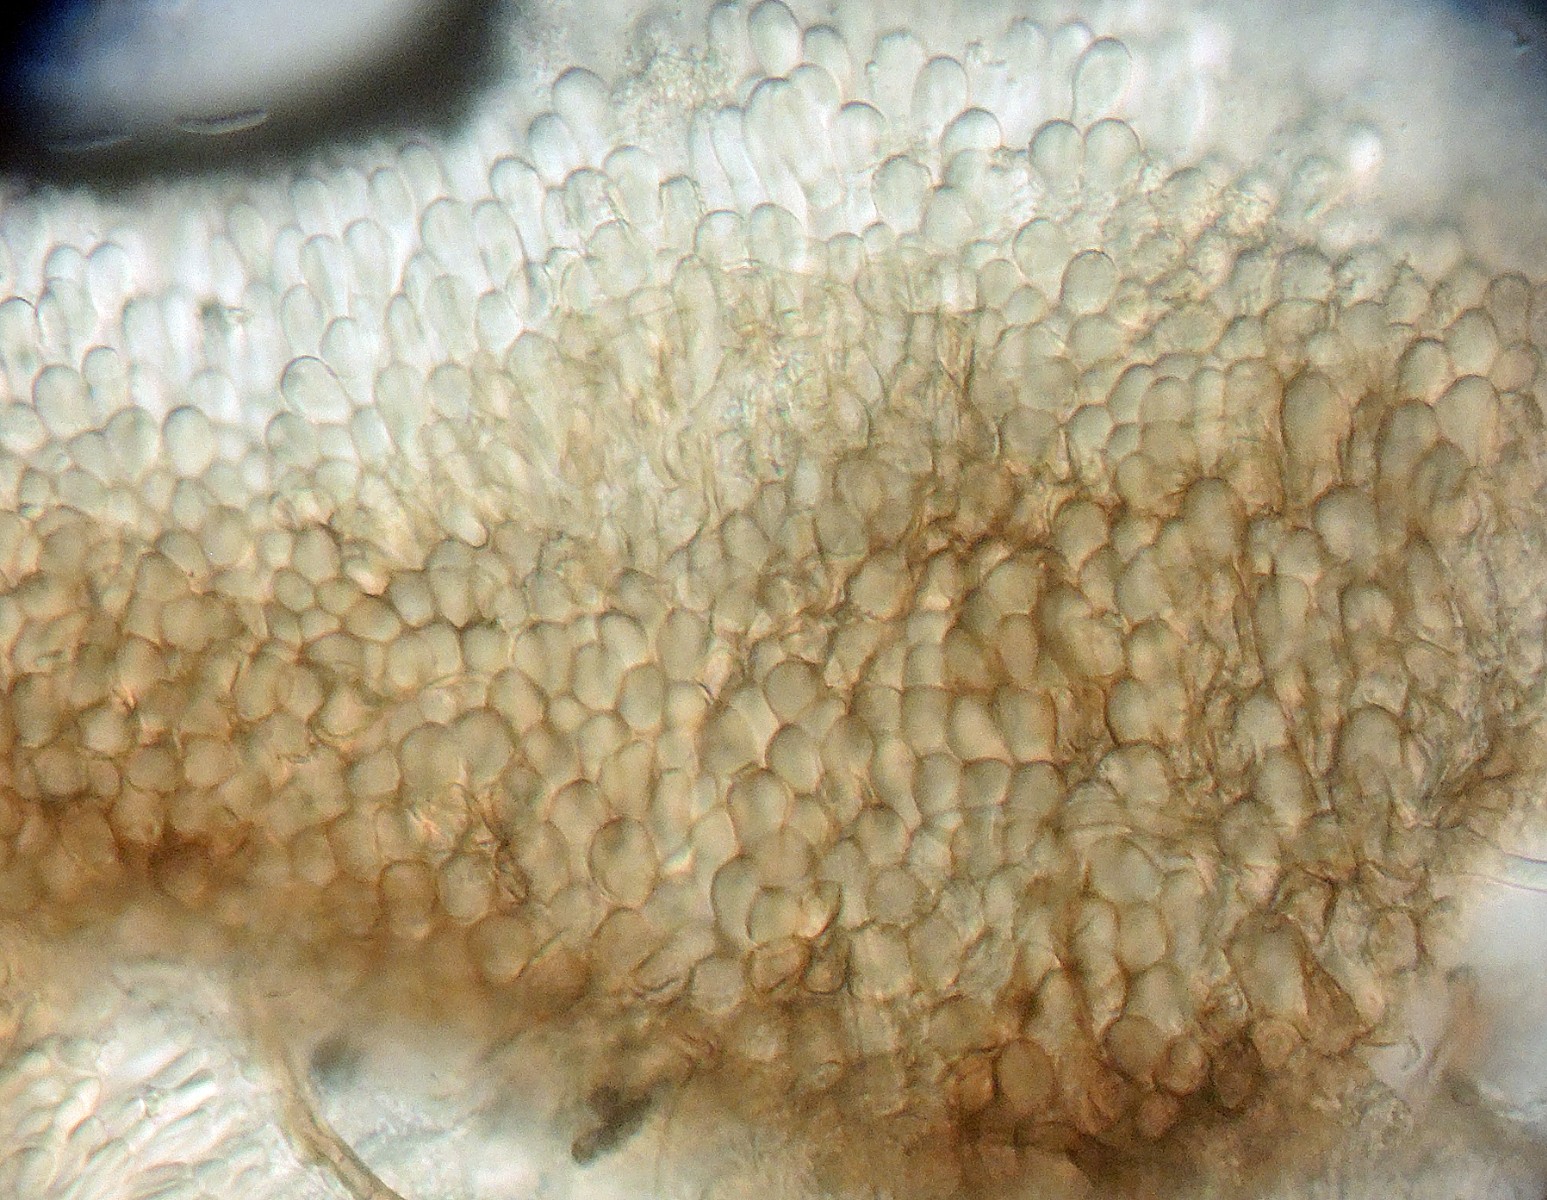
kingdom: Fungi
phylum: Ascomycota
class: Leotiomycetes
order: Helotiales
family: Mollisiaceae
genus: Tapesia
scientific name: Tapesia fusca
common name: tæppe-gråskive
